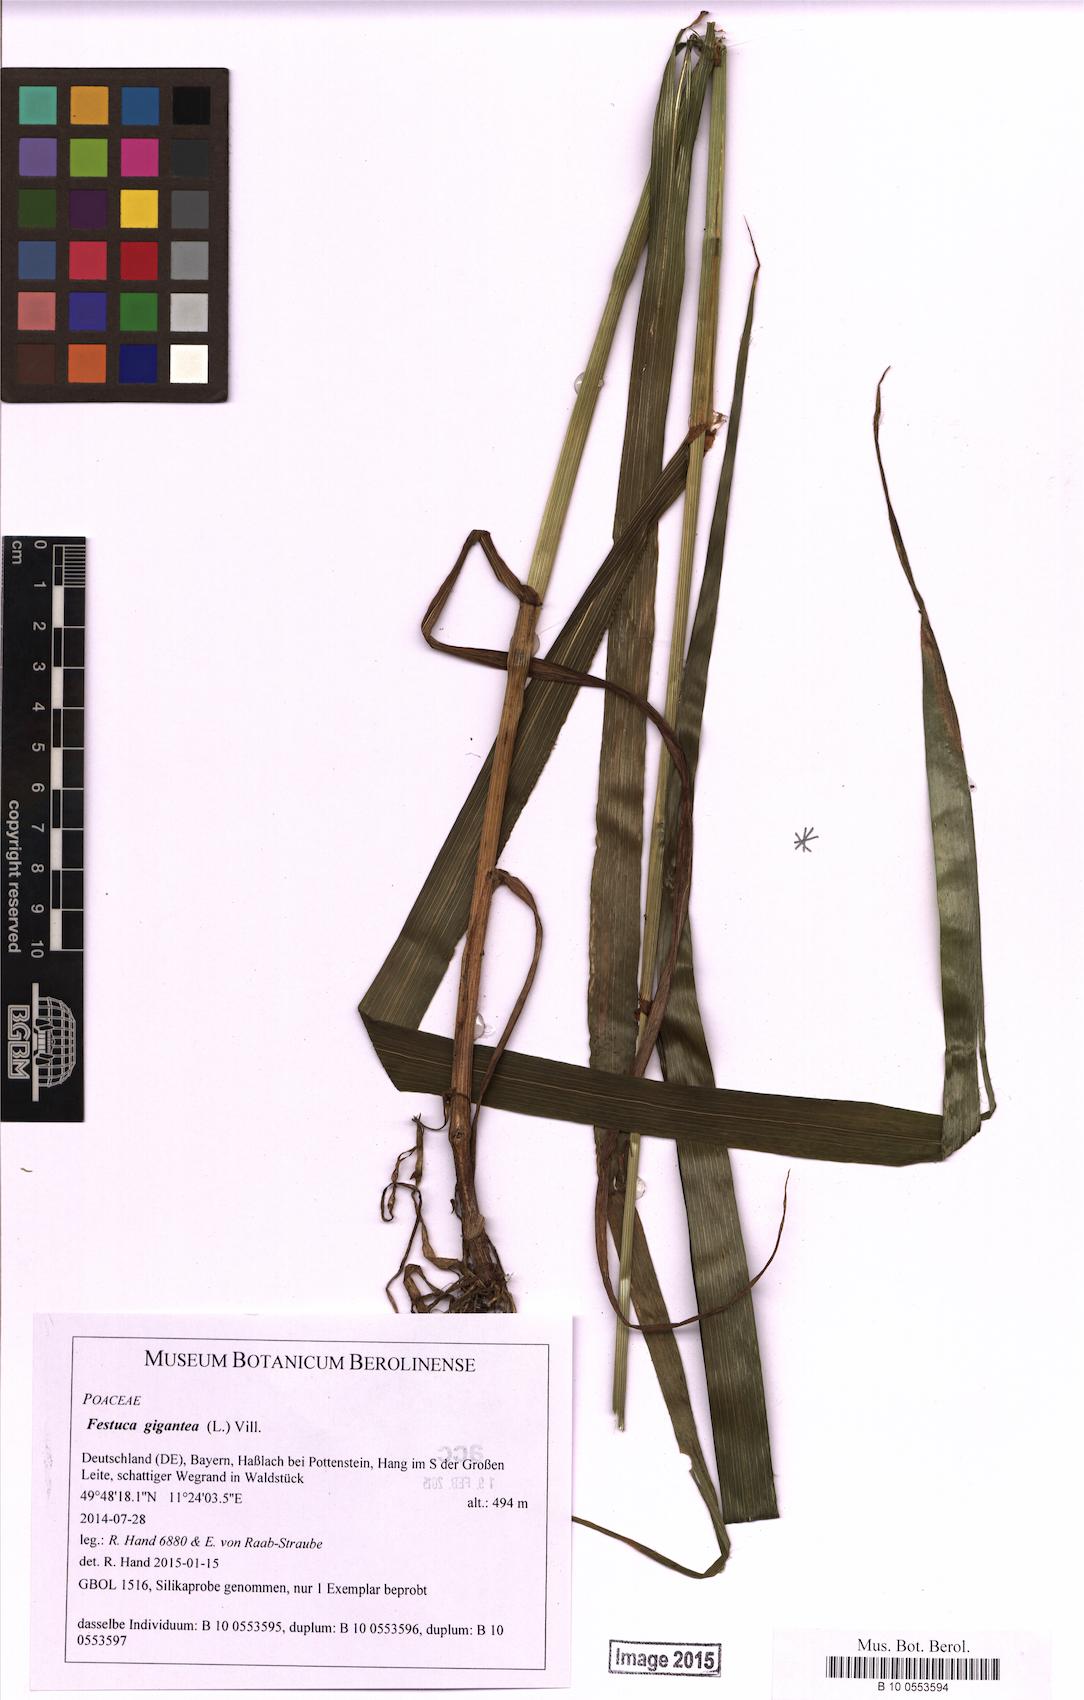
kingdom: Plantae
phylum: Tracheophyta
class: Liliopsida
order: Poales
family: Poaceae
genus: Lolium
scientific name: Lolium giganteum
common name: Giant fescue
